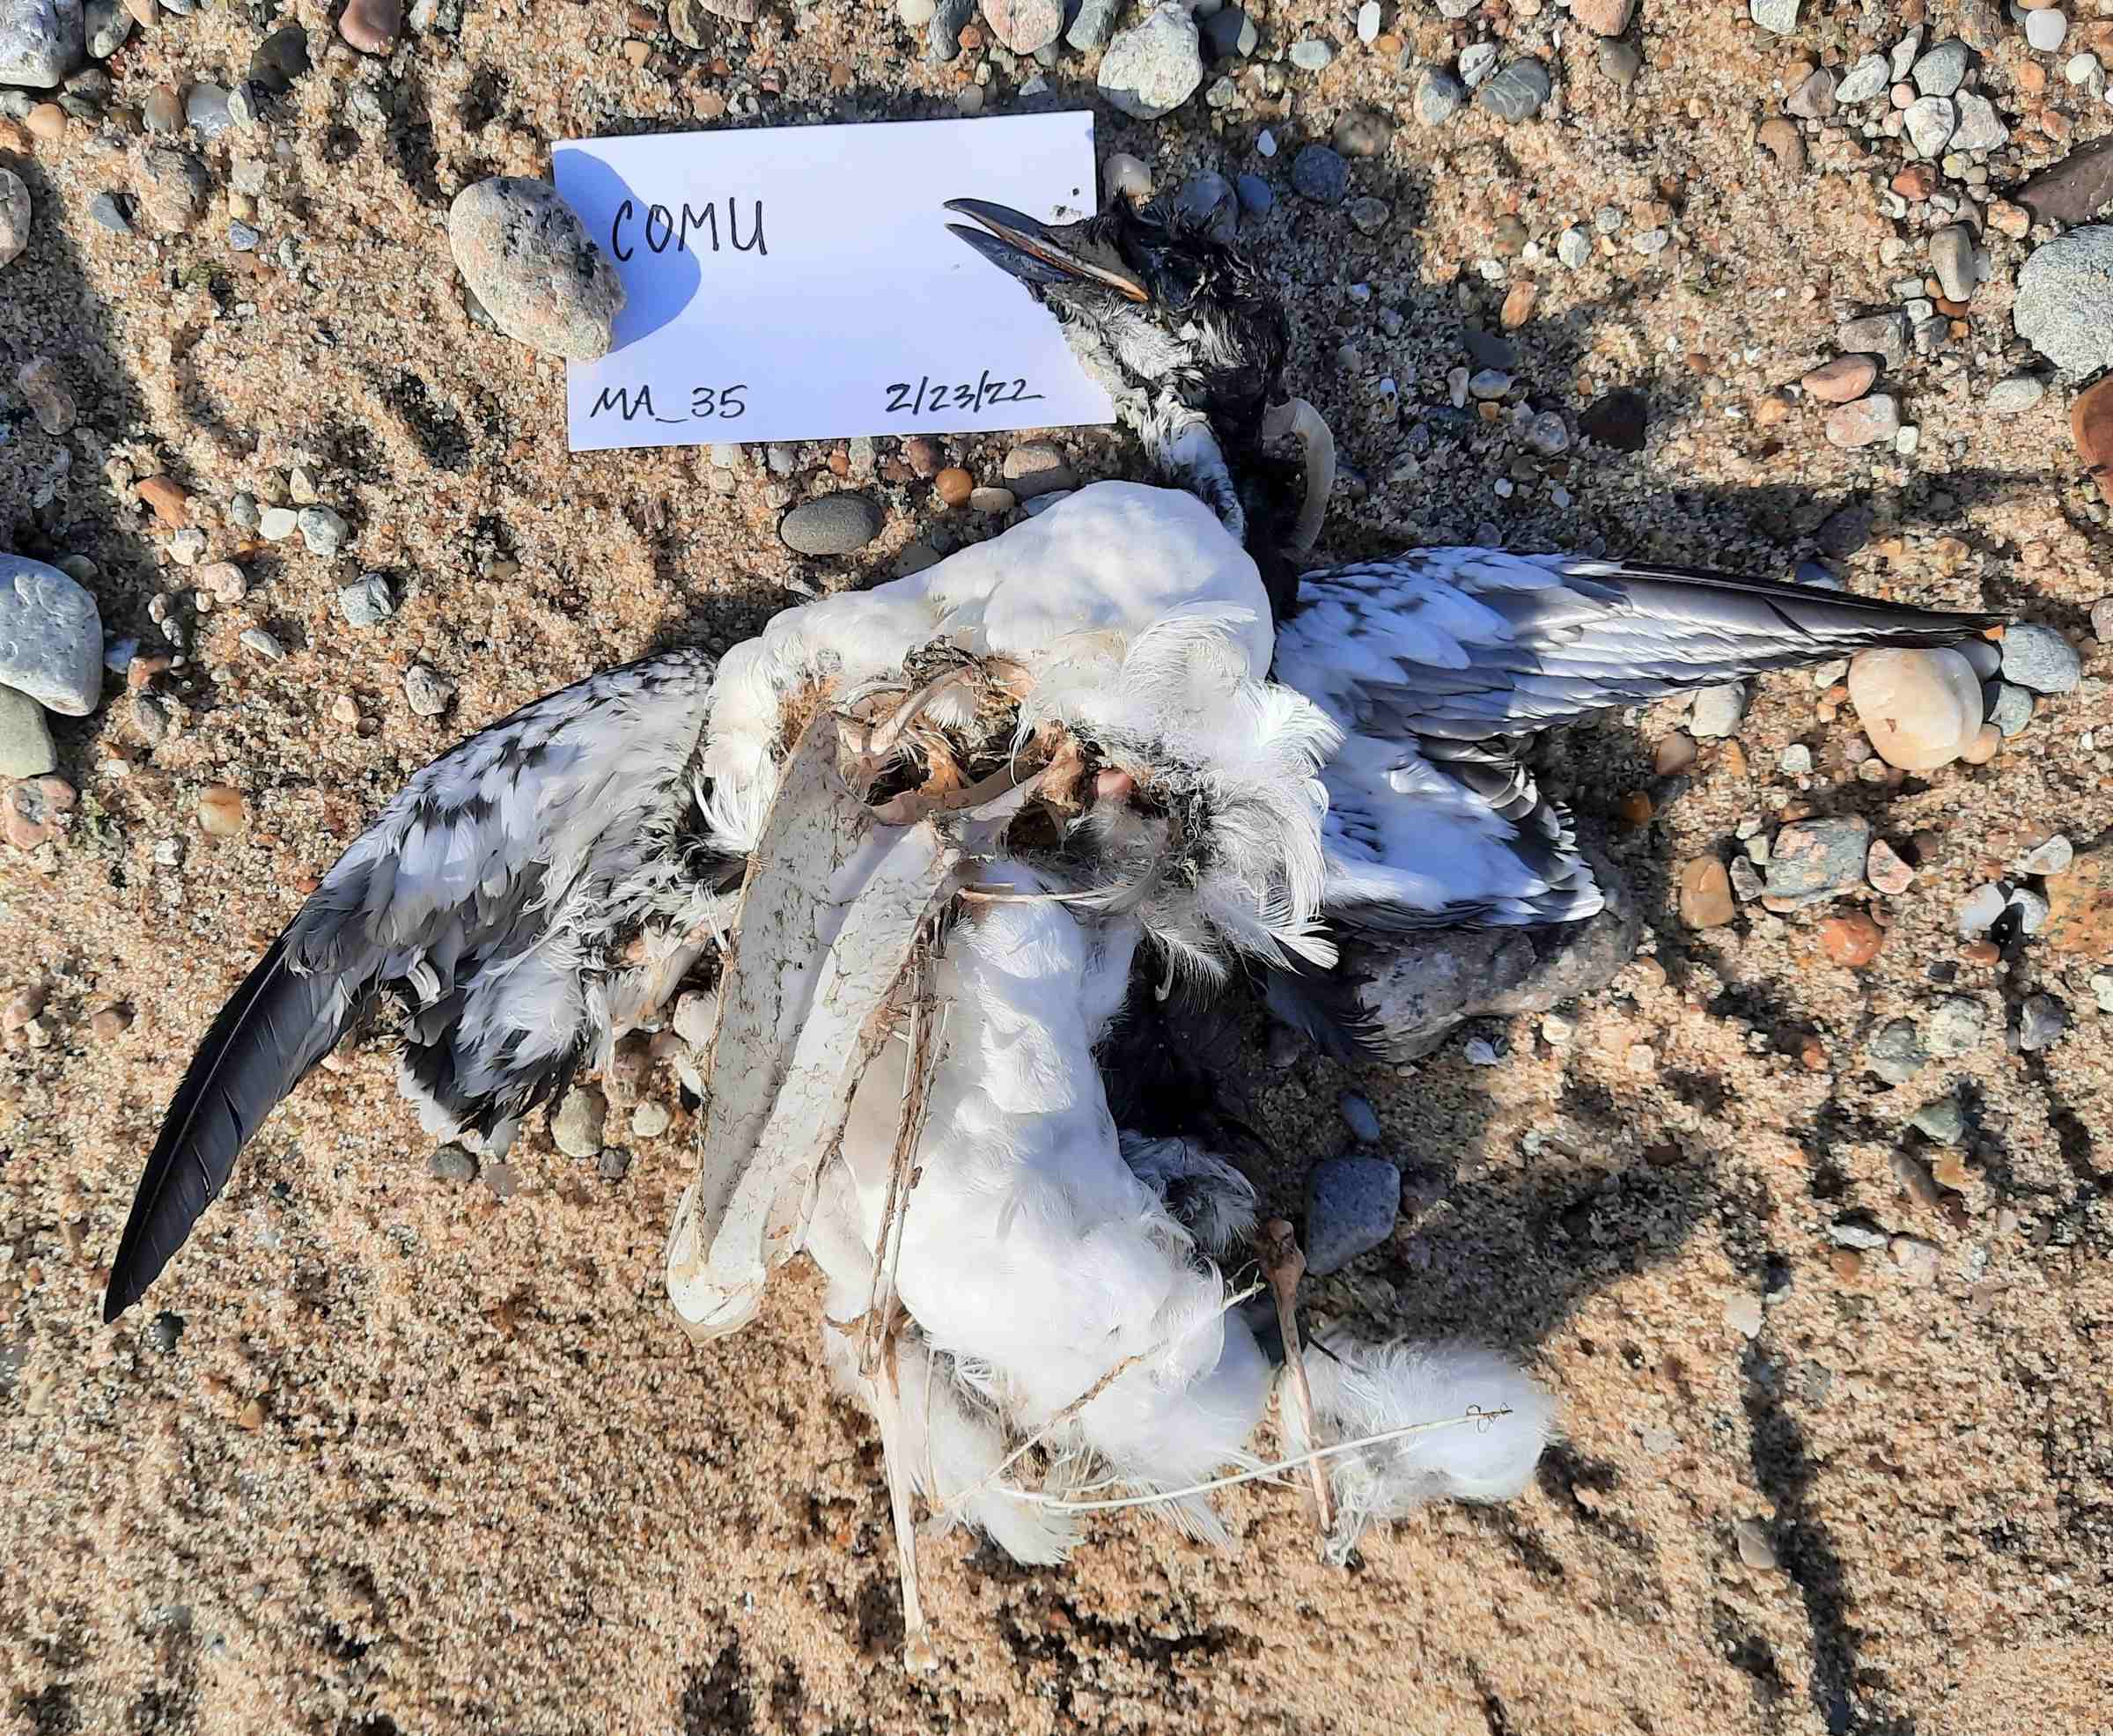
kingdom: Animalia
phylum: Chordata
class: Aves
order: Charadriiformes
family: Alcidae
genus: Uria
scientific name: Uria aalge
